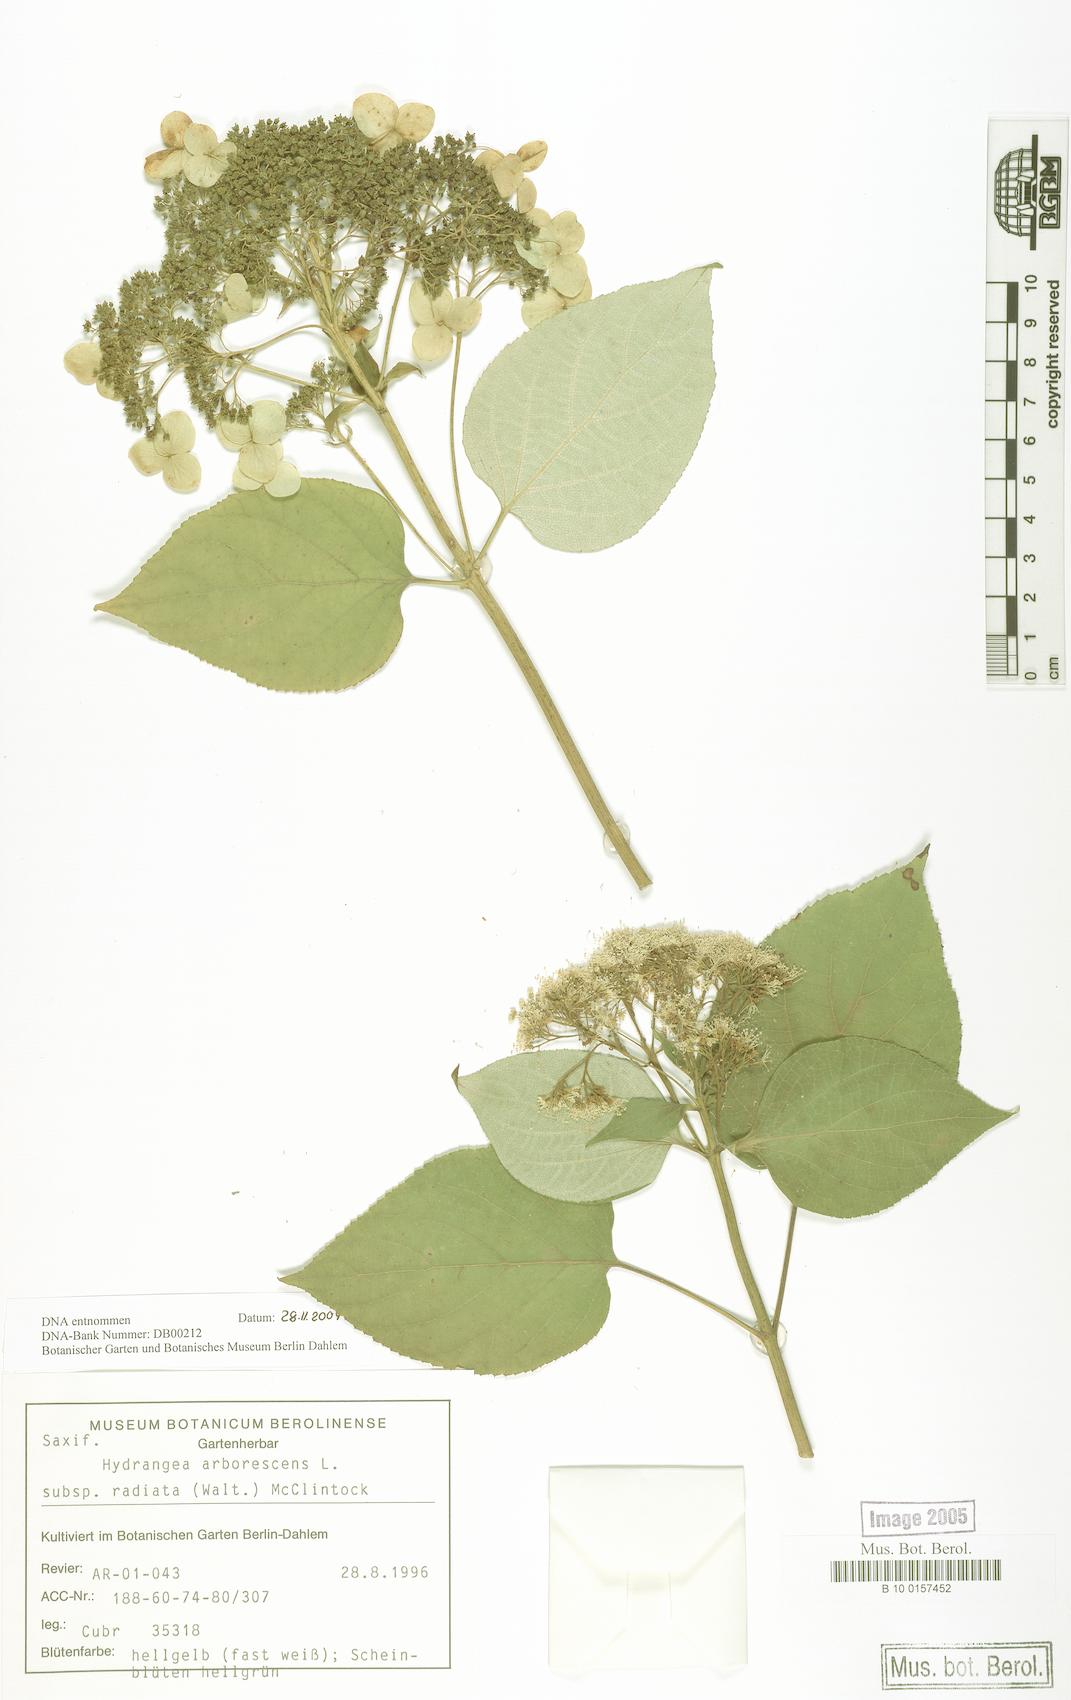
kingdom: Plantae
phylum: Tracheophyta
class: Magnoliopsida
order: Cornales
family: Hydrangeaceae
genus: Hydrangea
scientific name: Hydrangea radiata
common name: Silverleaf hydrangea
